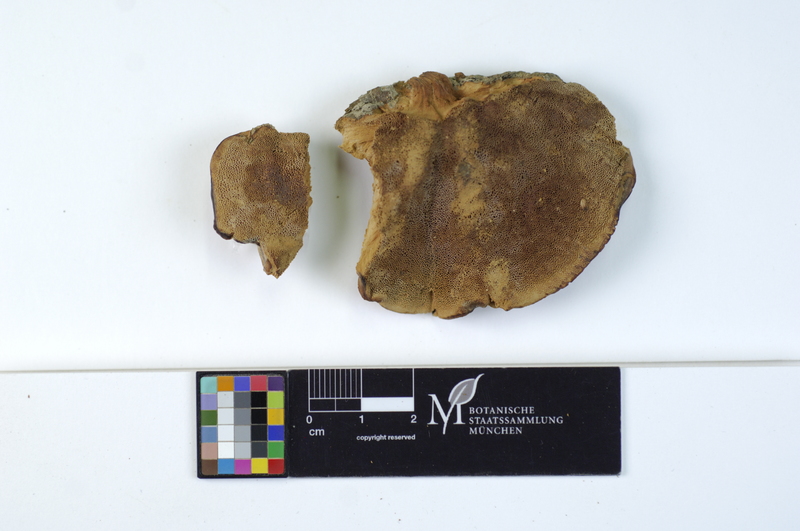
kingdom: Fungi
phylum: Basidiomycota
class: Agaricomycetes
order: Polyporales
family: Phanerochaetaceae
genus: Hapalopilus
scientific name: Hapalopilus rutilans
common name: Tender nesting polypore
